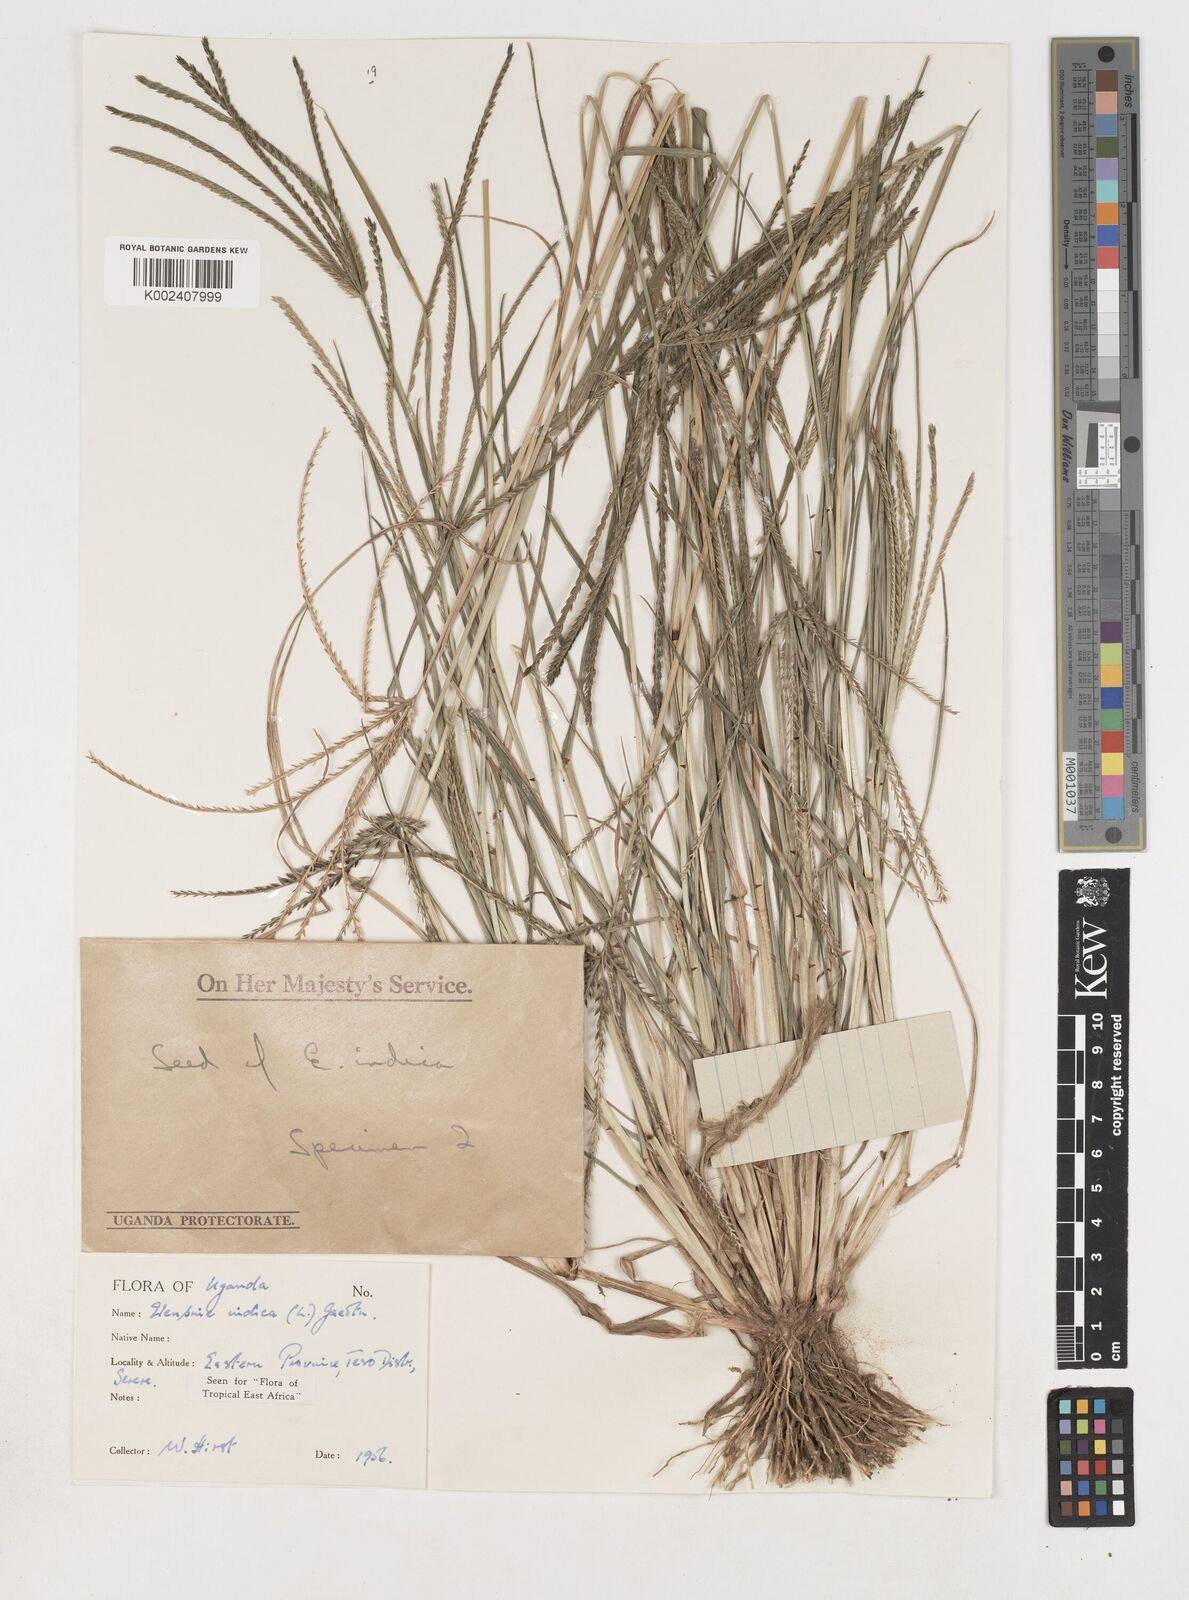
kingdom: Plantae
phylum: Tracheophyta
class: Liliopsida
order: Poales
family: Poaceae
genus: Eleusine
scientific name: Eleusine indica
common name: Yard-grass
